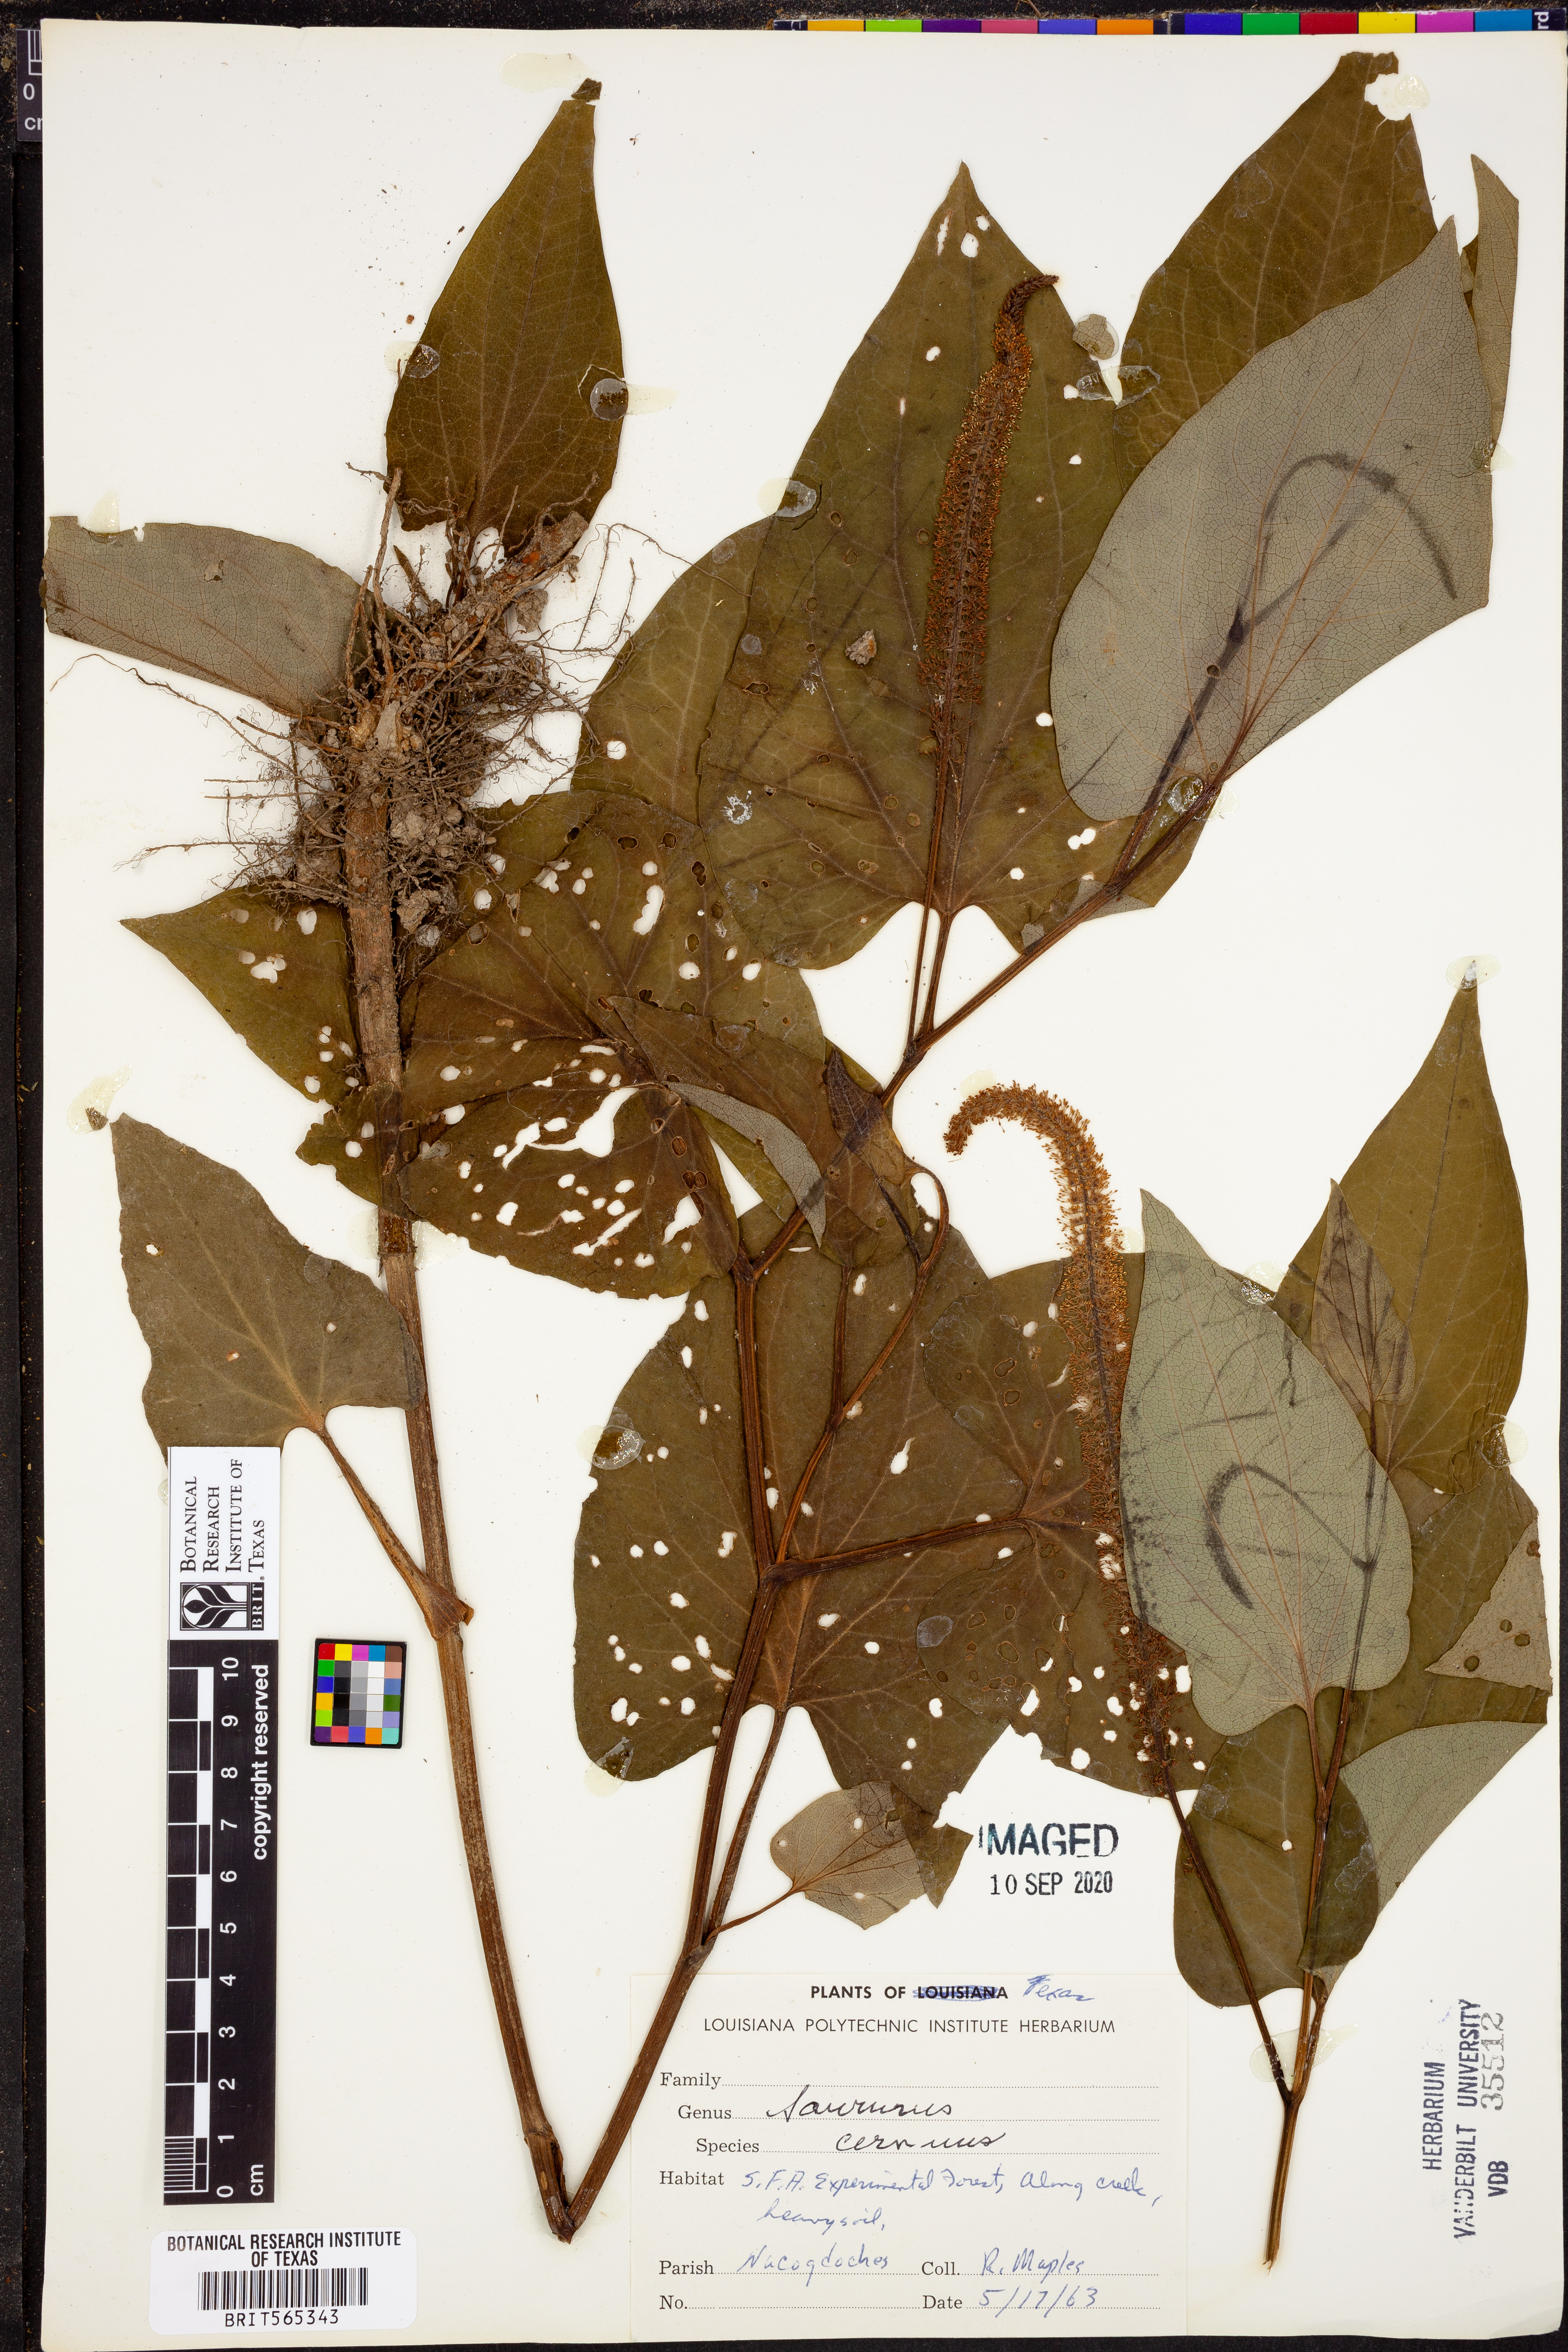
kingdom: Plantae
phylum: Tracheophyta
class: Magnoliopsida
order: Piperales
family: Saururaceae
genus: Saururus
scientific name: Saururus cernuus
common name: Lizard's-tail
